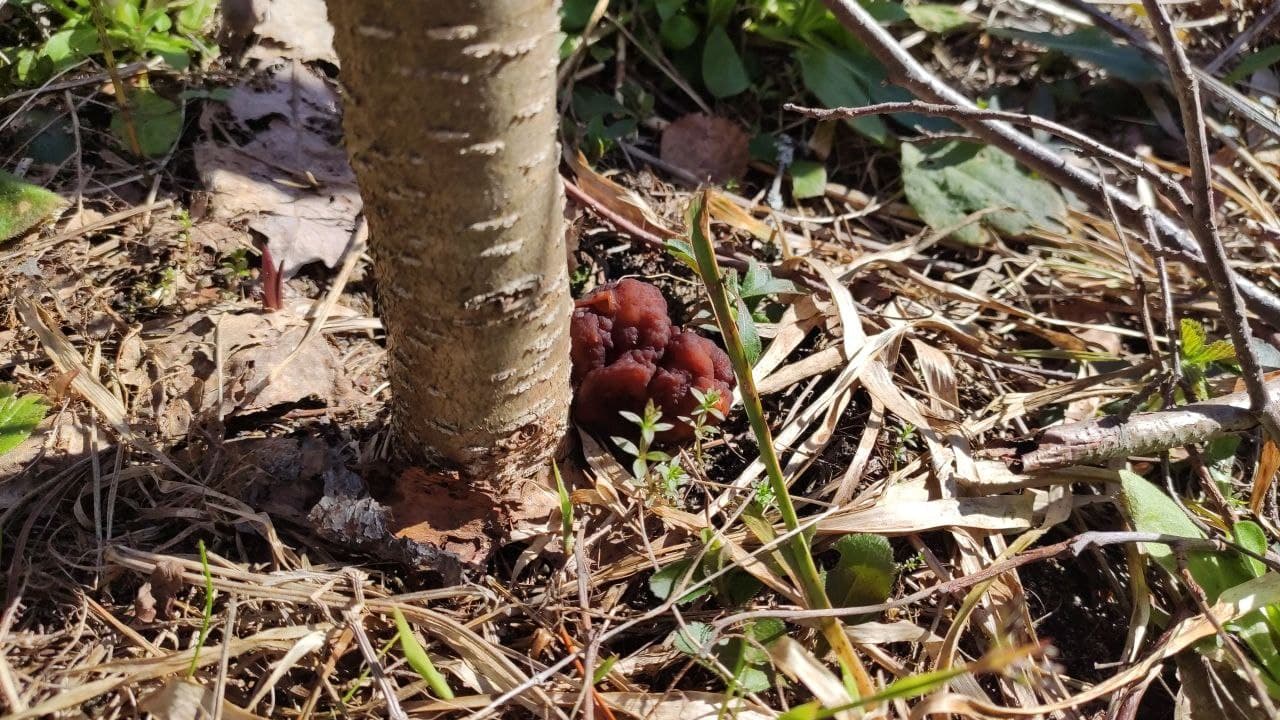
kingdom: Fungi
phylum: Ascomycota
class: Pezizomycetes
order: Pezizales
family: Discinaceae
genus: Gyromitra
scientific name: Gyromitra
